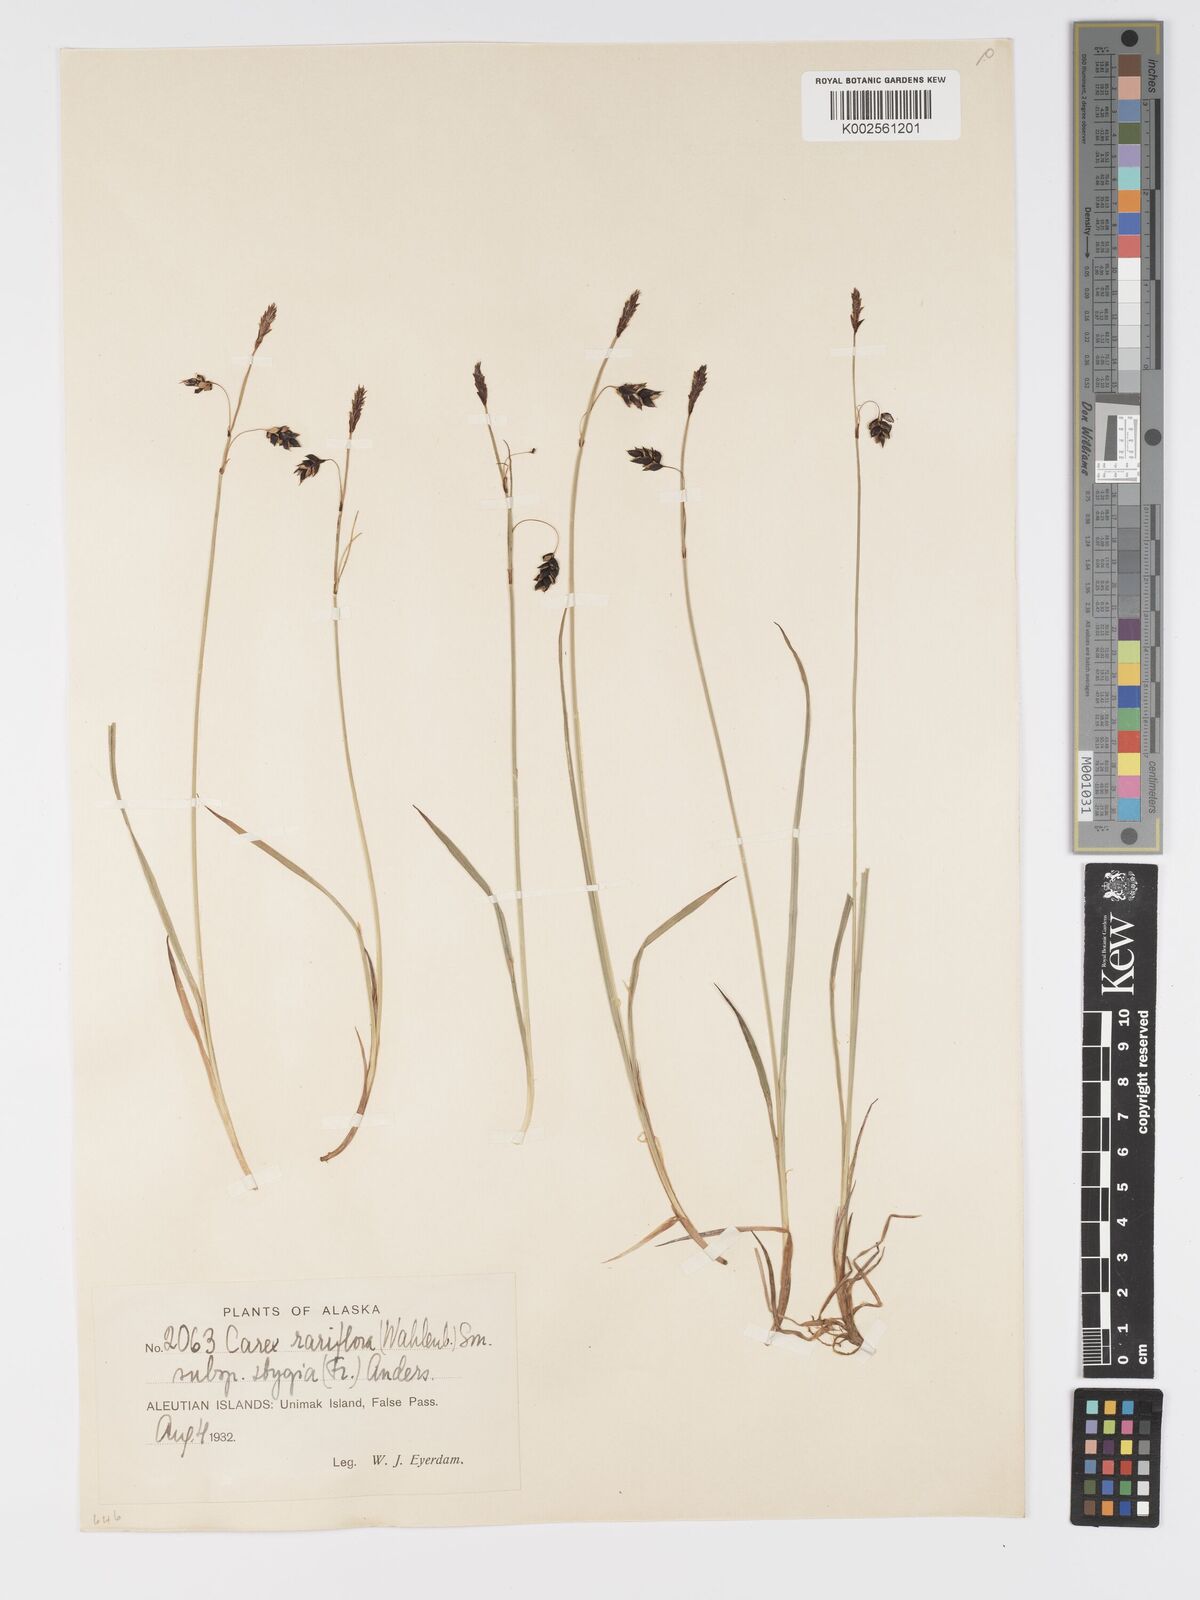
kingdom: Plantae
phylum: Tracheophyta
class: Liliopsida
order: Poales
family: Cyperaceae
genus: Carex
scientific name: Carex stygia
